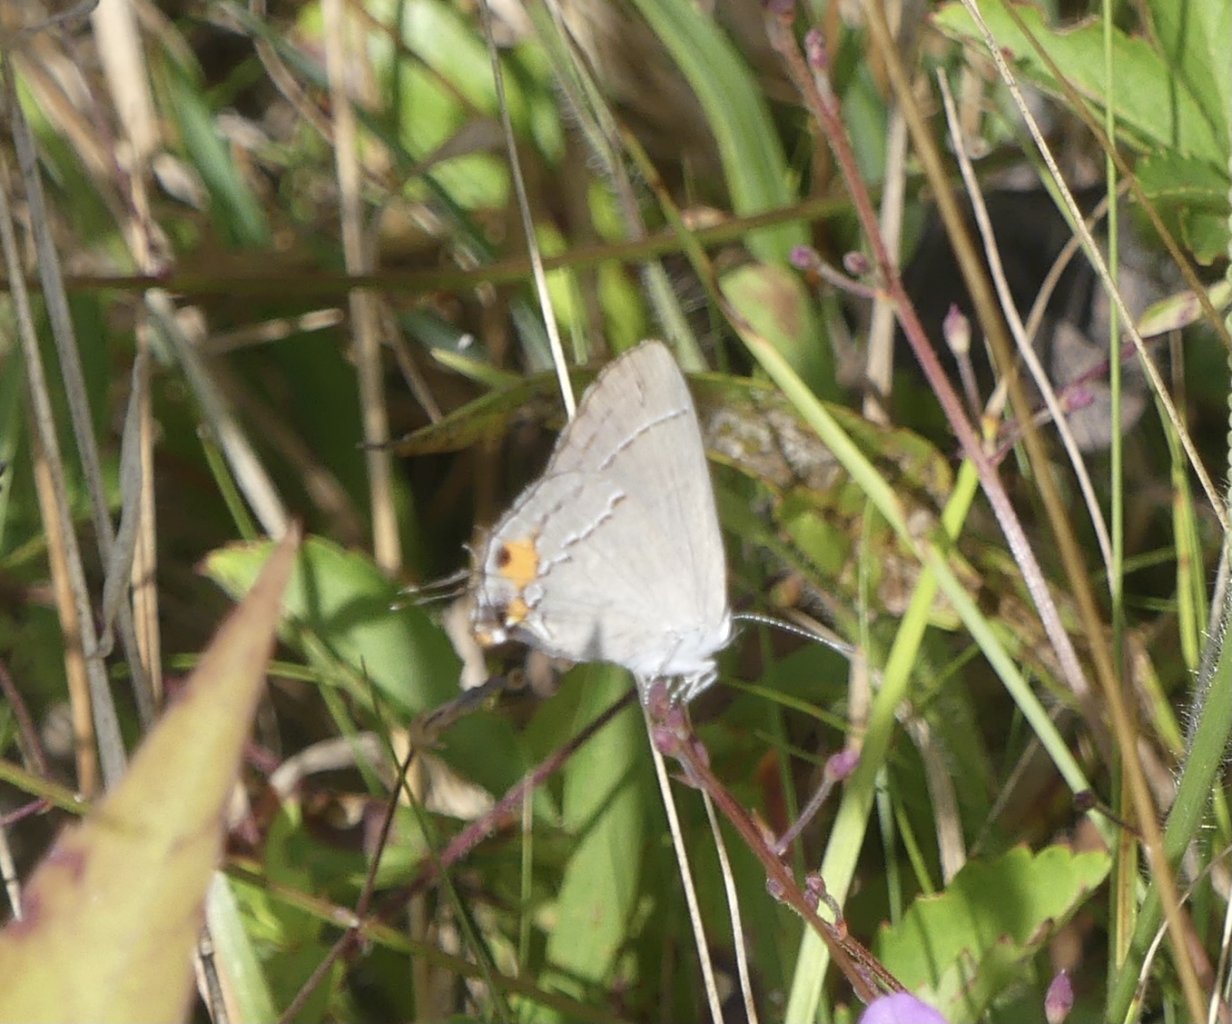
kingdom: Animalia
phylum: Arthropoda
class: Insecta
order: Lepidoptera
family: Lycaenidae
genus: Strymon
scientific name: Strymon melinus
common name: Gray Hairstreak
